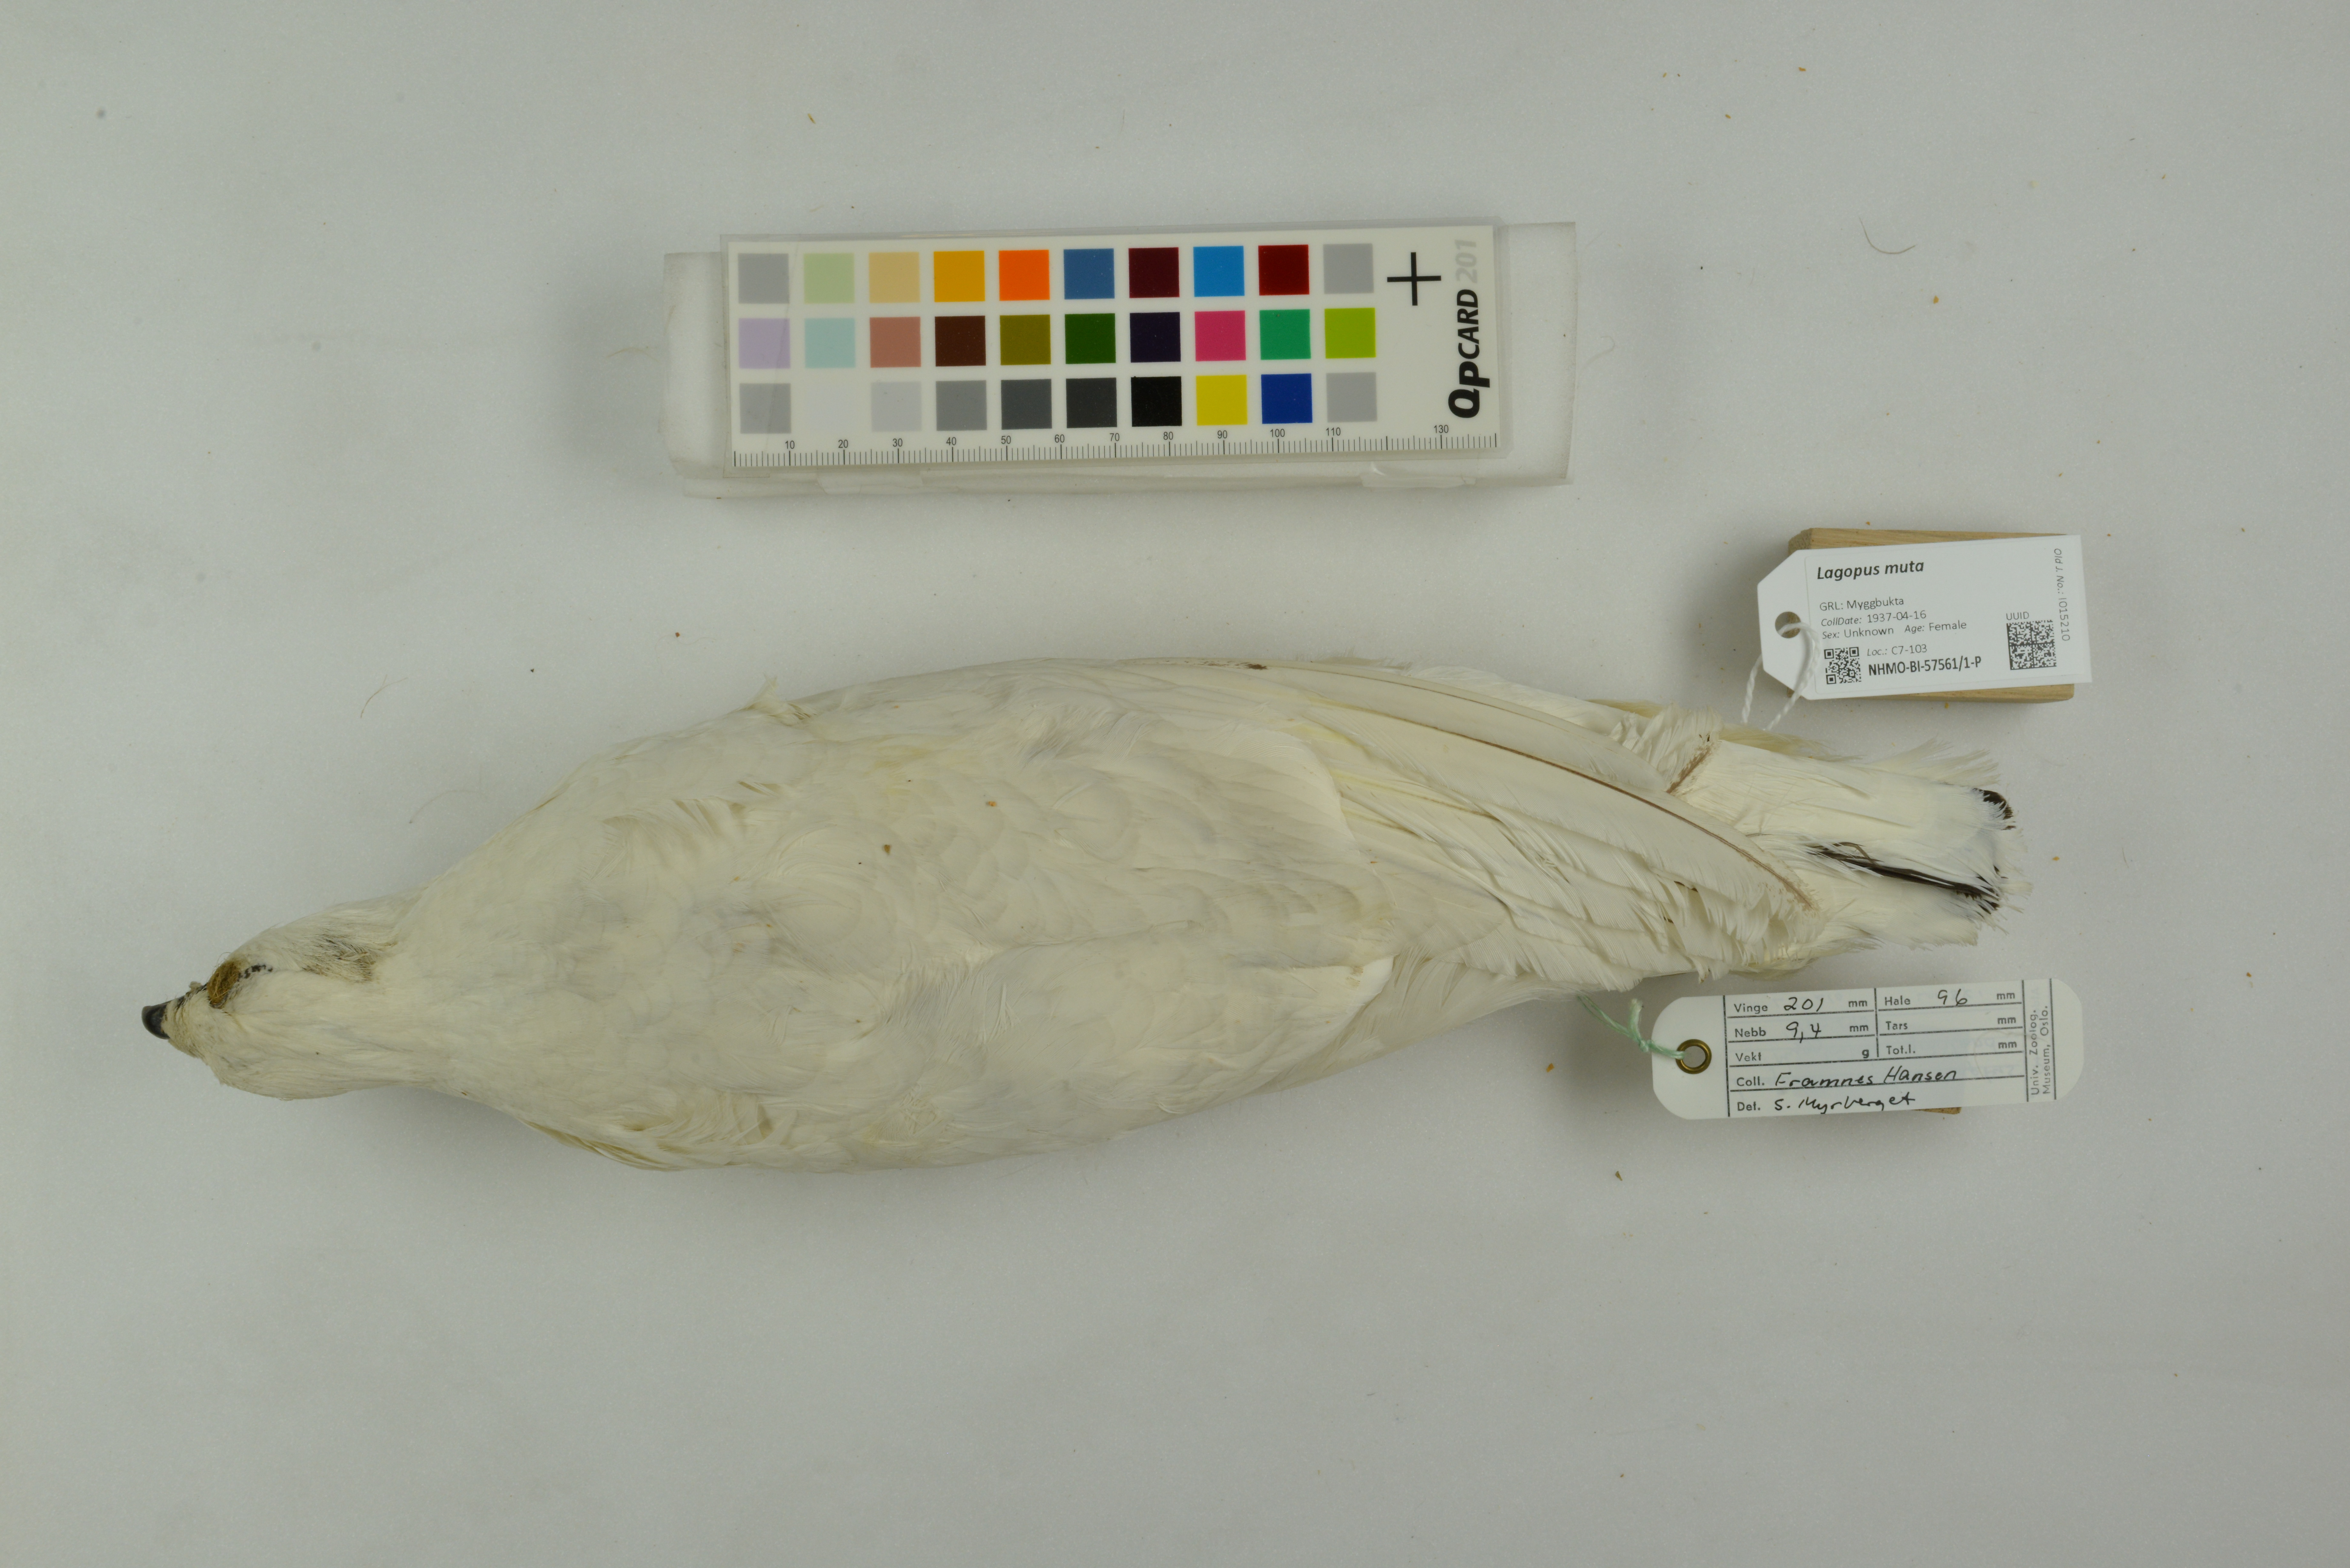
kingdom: Animalia
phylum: Chordata
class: Aves
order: Galliformes
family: Phasianidae
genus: Lagopus
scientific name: Lagopus muta
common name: Rock ptarmigan
